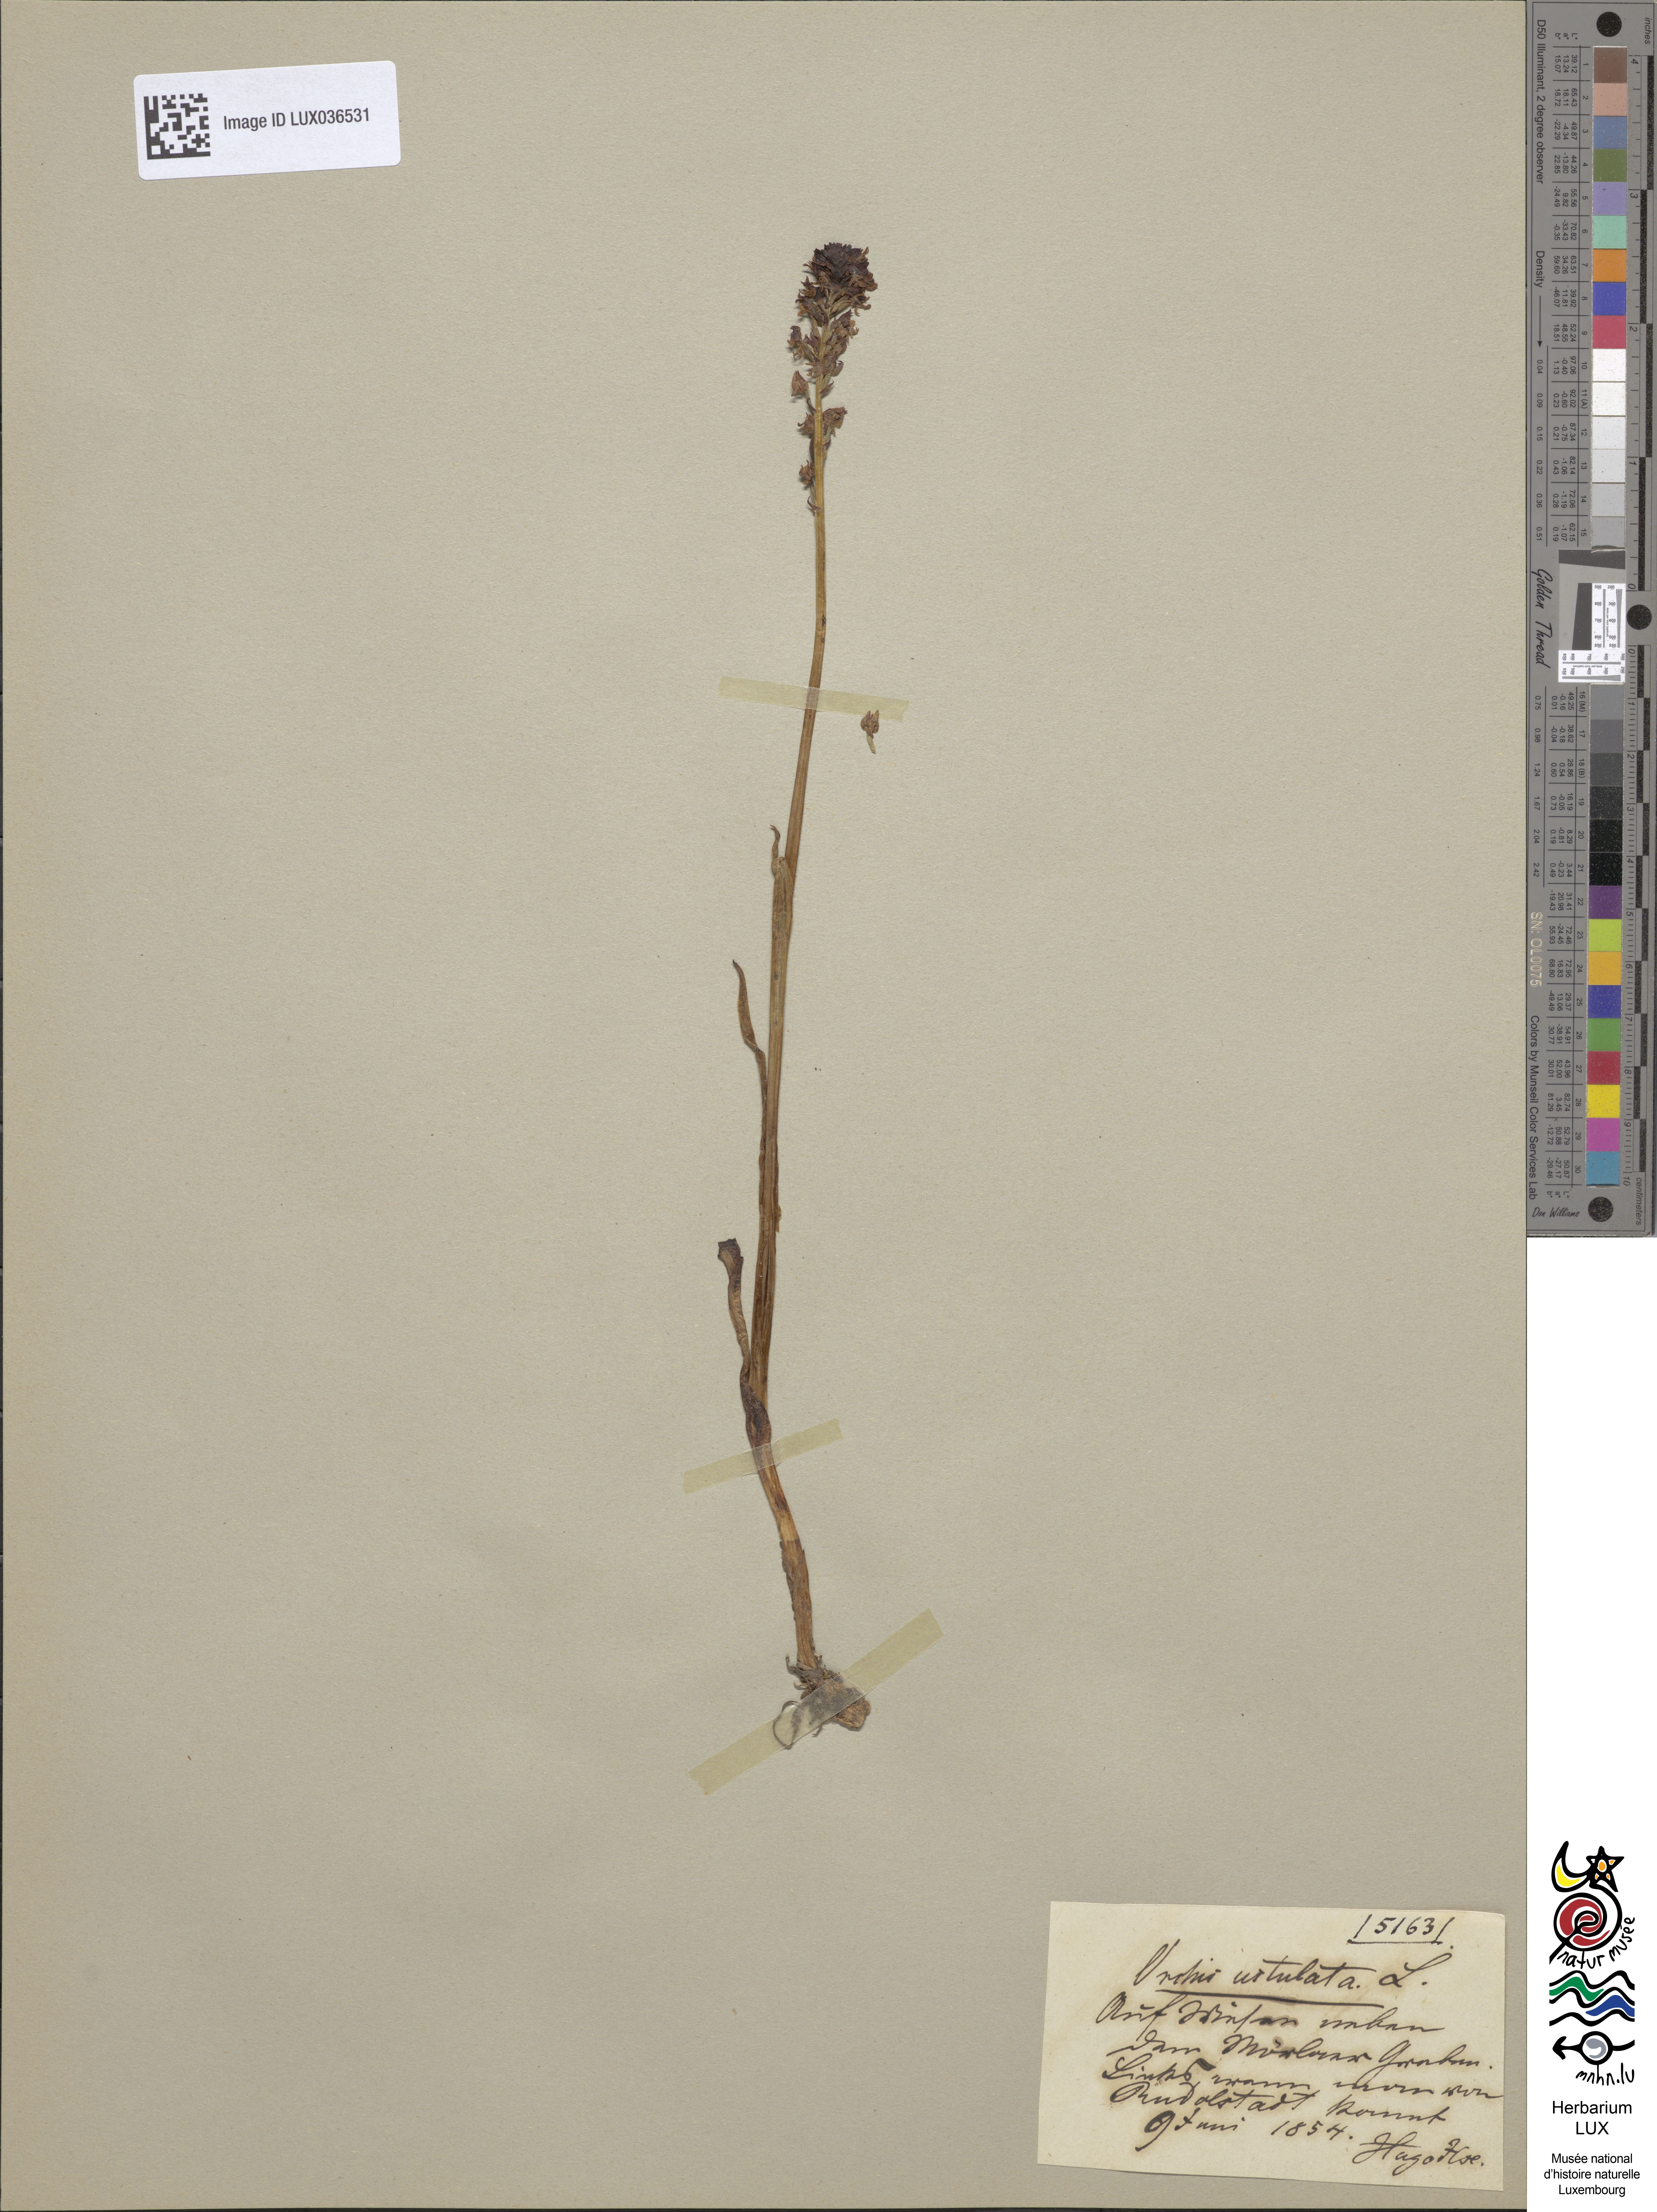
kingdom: Plantae
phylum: Tracheophyta
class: Liliopsida
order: Asparagales
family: Orchidaceae
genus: Neotinea
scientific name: Neotinea ustulata
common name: Burnt orchid
